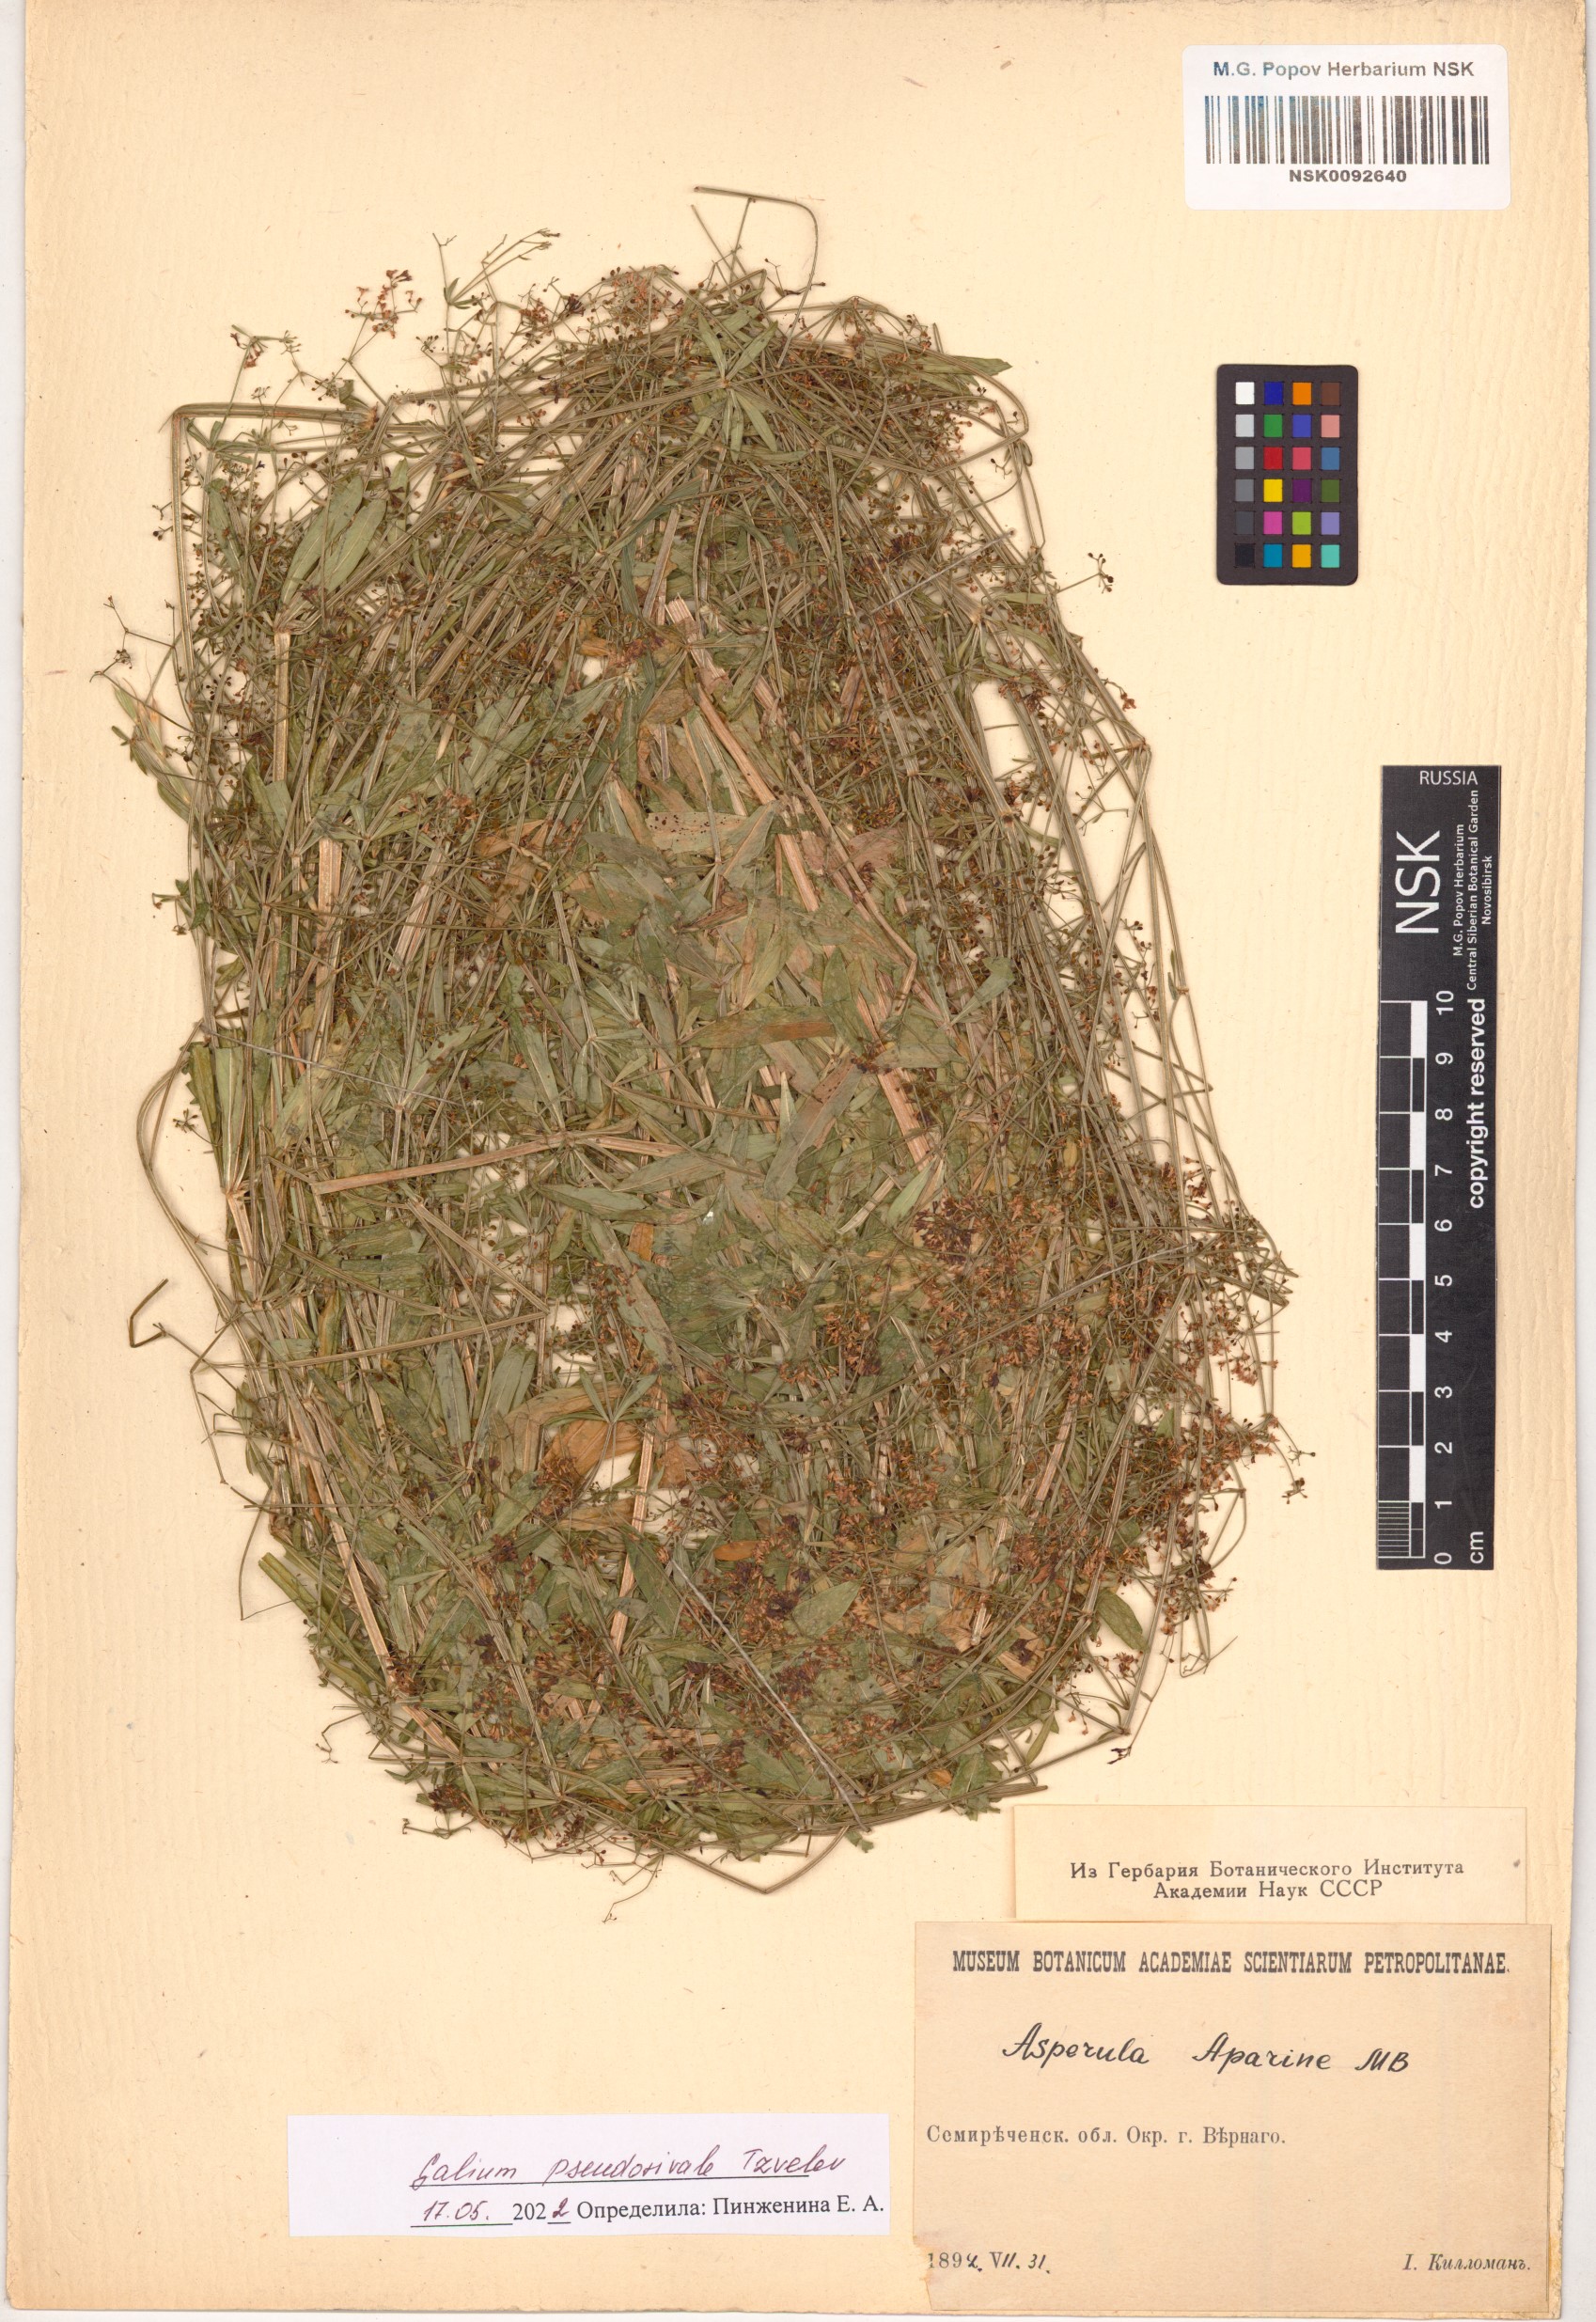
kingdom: Plantae
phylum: Tracheophyta
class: Magnoliopsida
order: Gentianales
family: Rubiaceae
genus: Galium
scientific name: Galium pseudorivale
